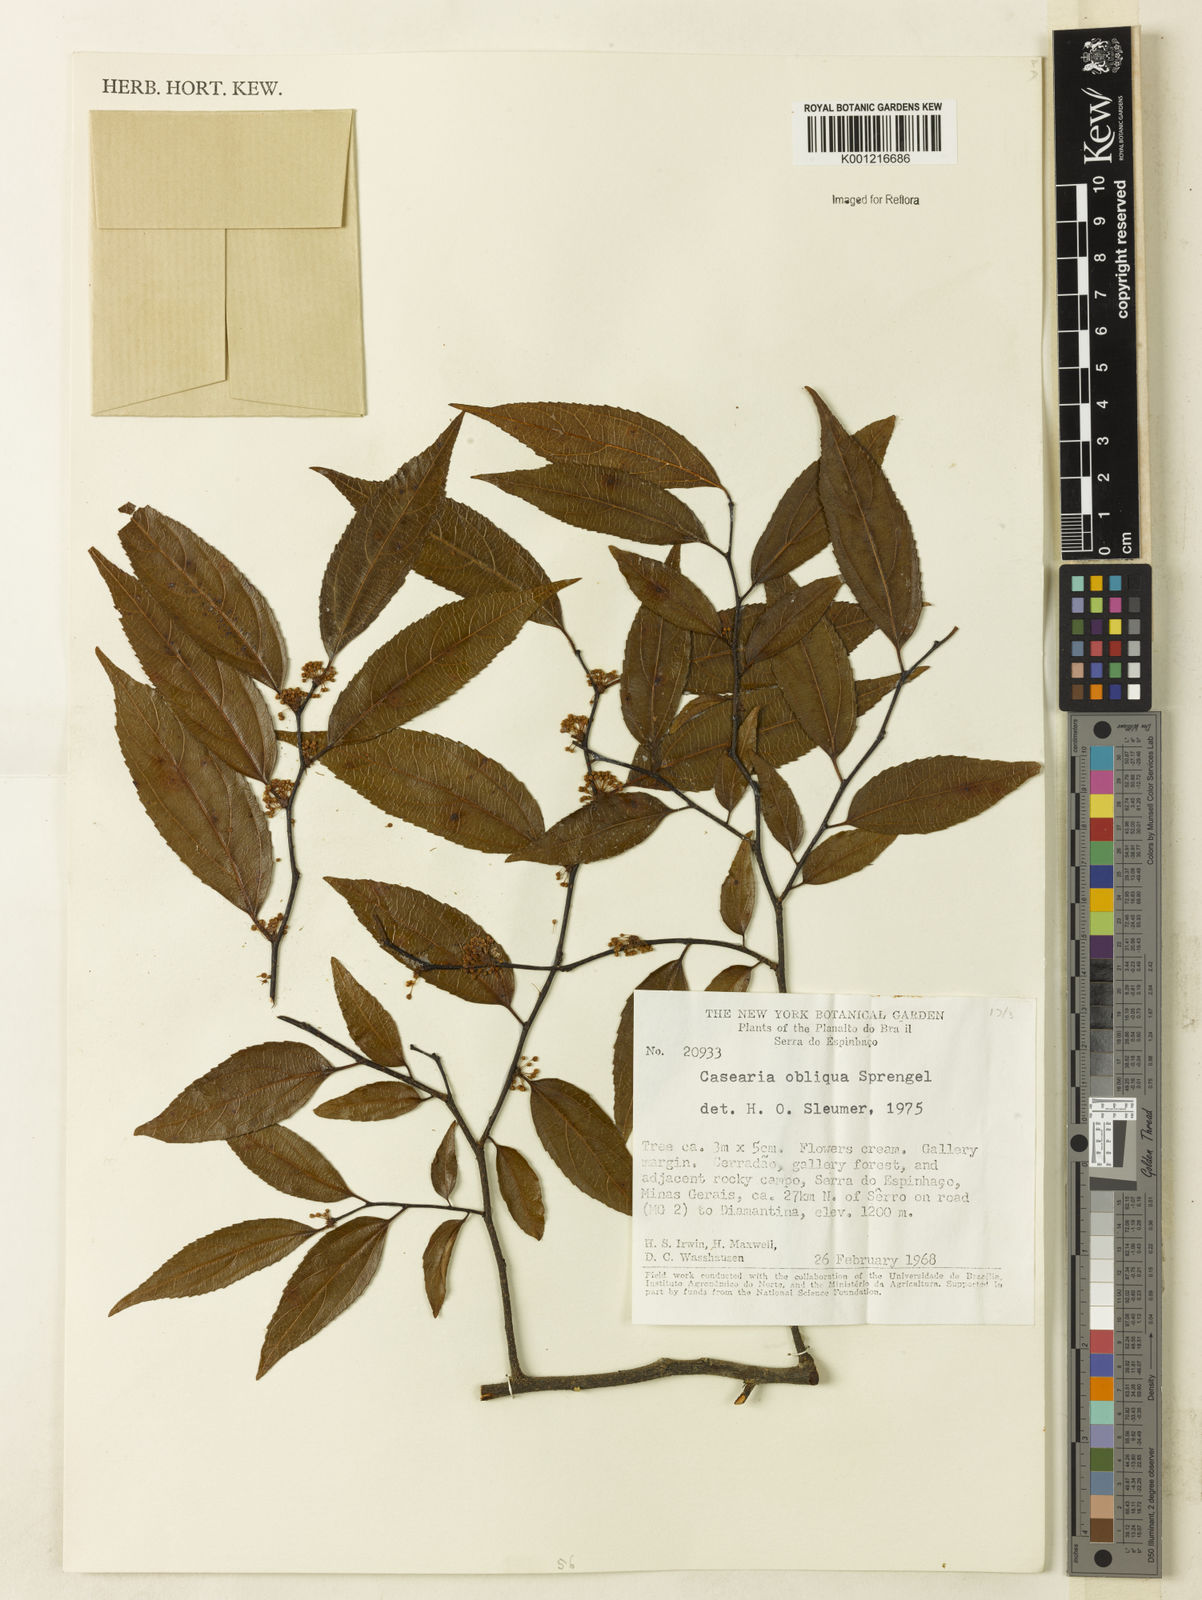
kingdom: Plantae
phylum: Tracheophyta
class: Magnoliopsida
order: Malpighiales
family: Salicaceae
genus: Casearia
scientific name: Casearia obliqua
